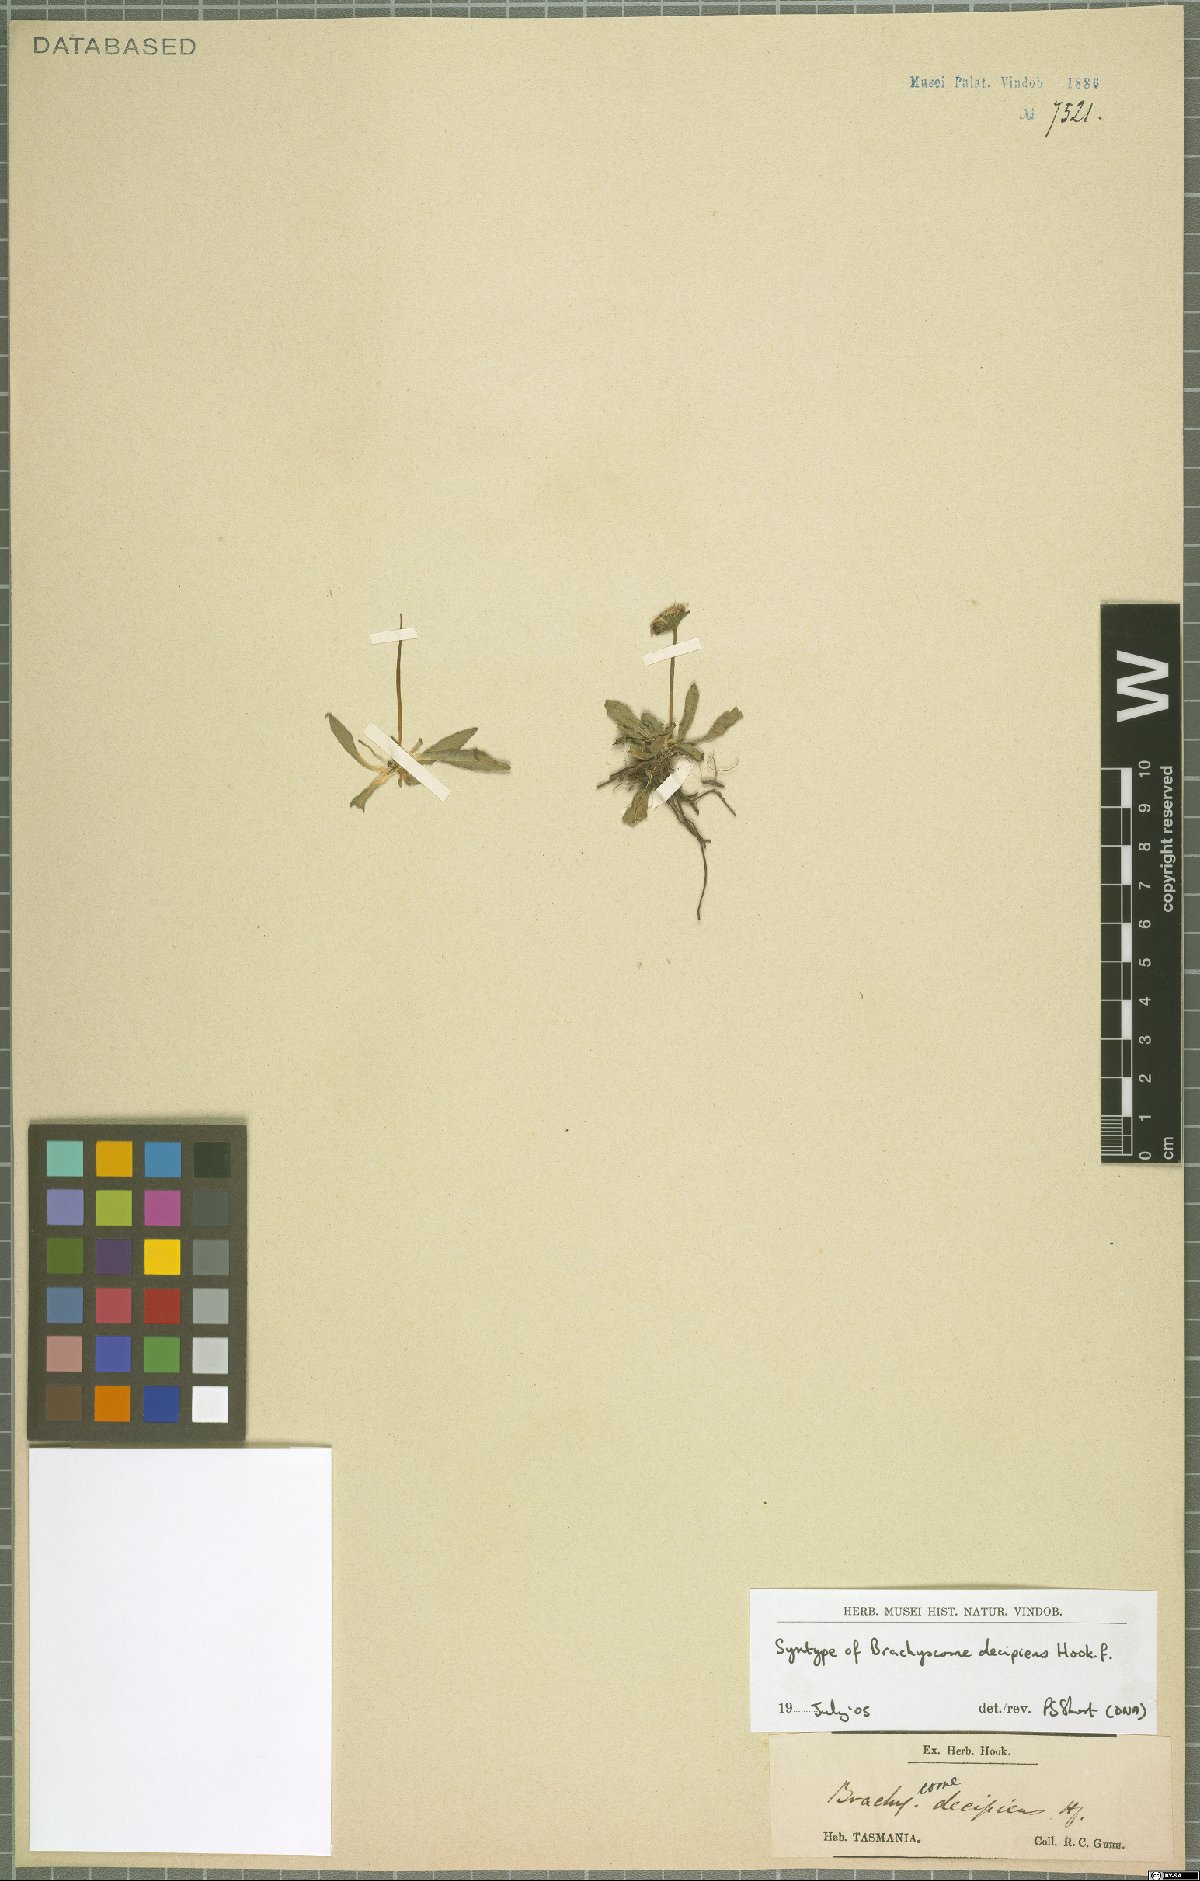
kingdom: Plantae
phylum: Tracheophyta
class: Magnoliopsida
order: Asterales
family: Asteraceae
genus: Brachyscome
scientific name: Brachyscome decipiens
